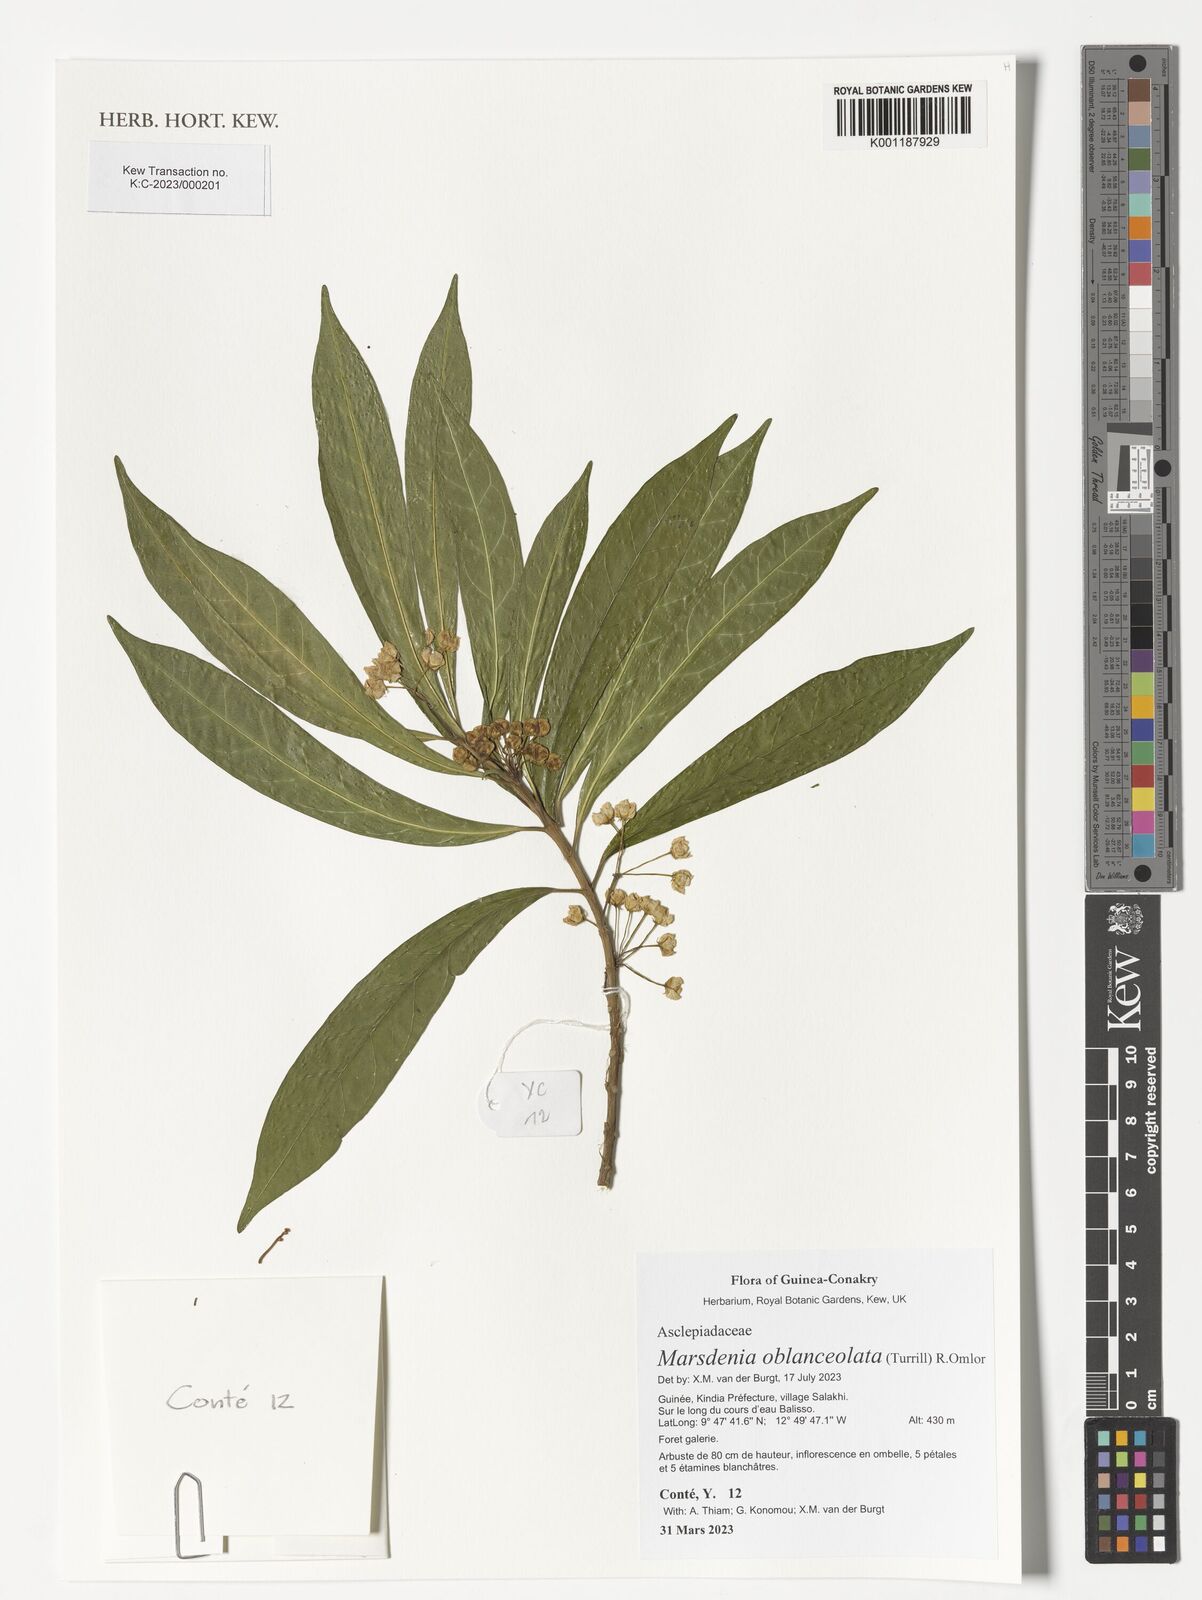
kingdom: Plantae
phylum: Tracheophyta
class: Magnoliopsida
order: Gentianales
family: Apocynaceae
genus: Dalzielia
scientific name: Dalzielia oblanceolata
